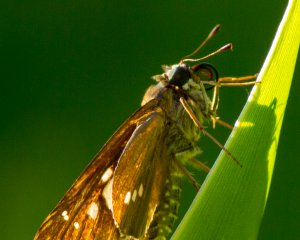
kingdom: Animalia
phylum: Arthropoda
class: Insecta
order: Lepidoptera
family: Hesperiidae
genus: Calpodes
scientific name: Calpodes ethlius
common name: Brazilian Skipper
